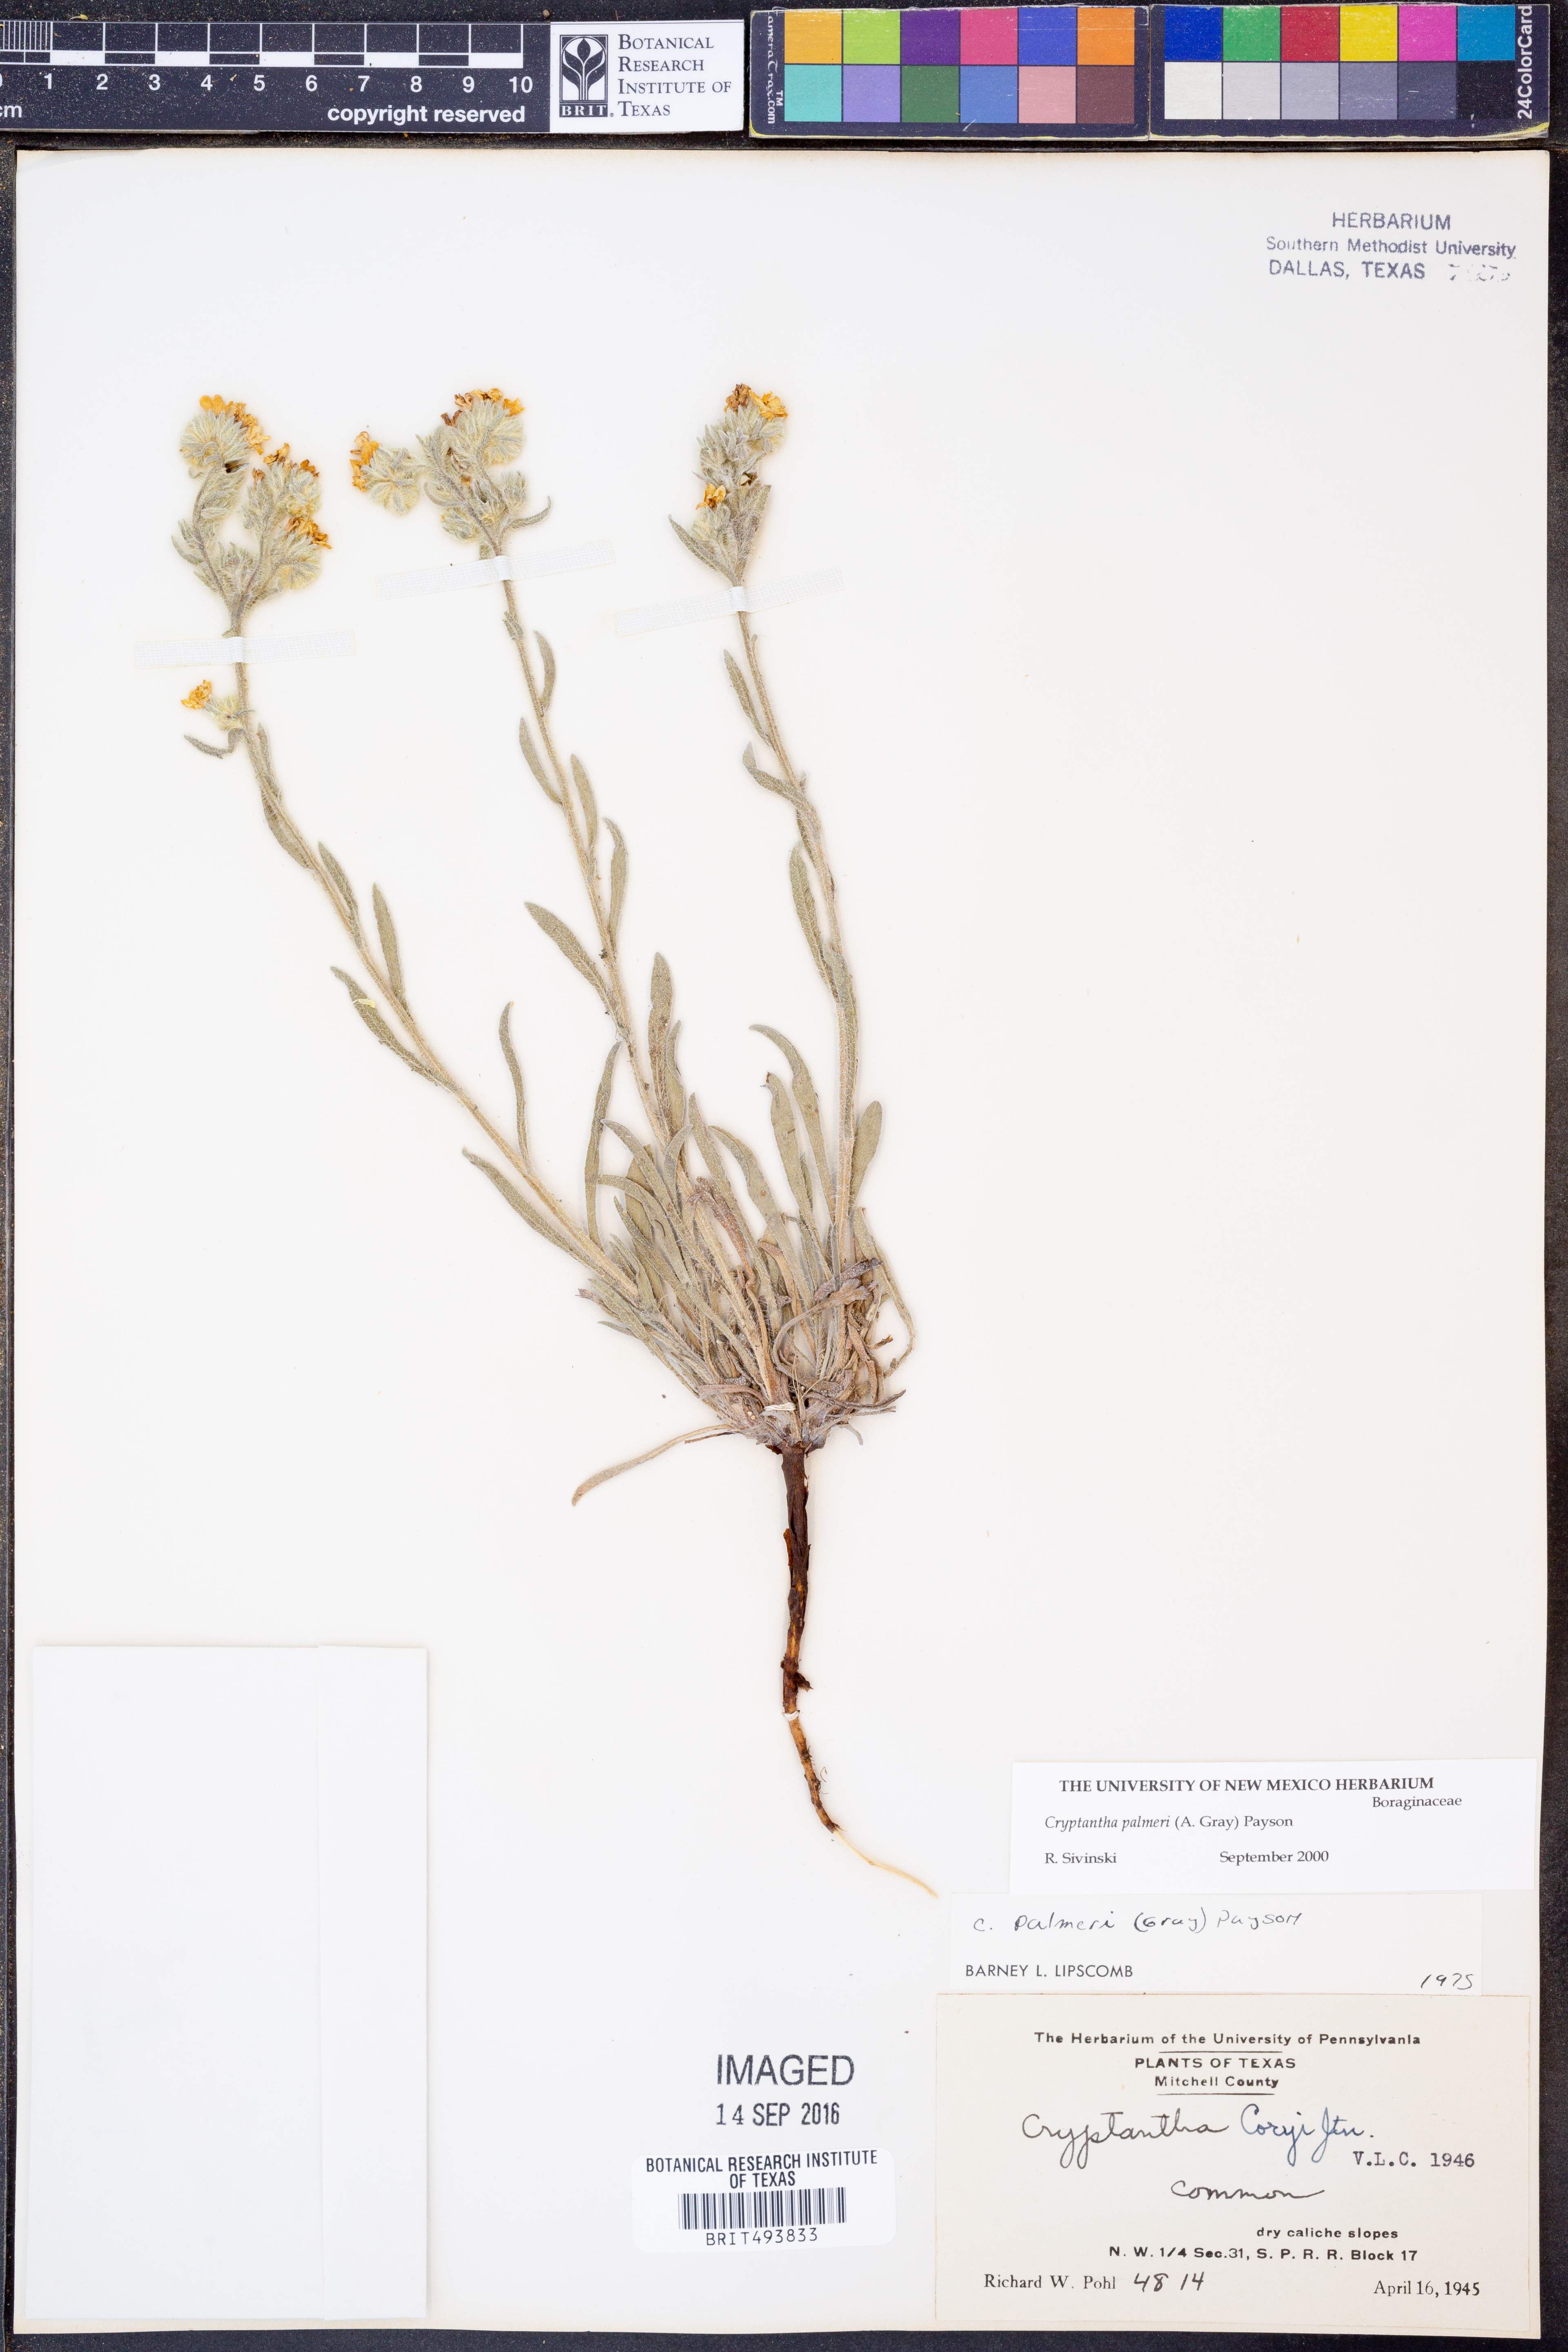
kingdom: Plantae
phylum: Tracheophyta
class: Magnoliopsida
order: Boraginales
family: Boraginaceae
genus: Oreocarya
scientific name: Oreocarya palmeri
